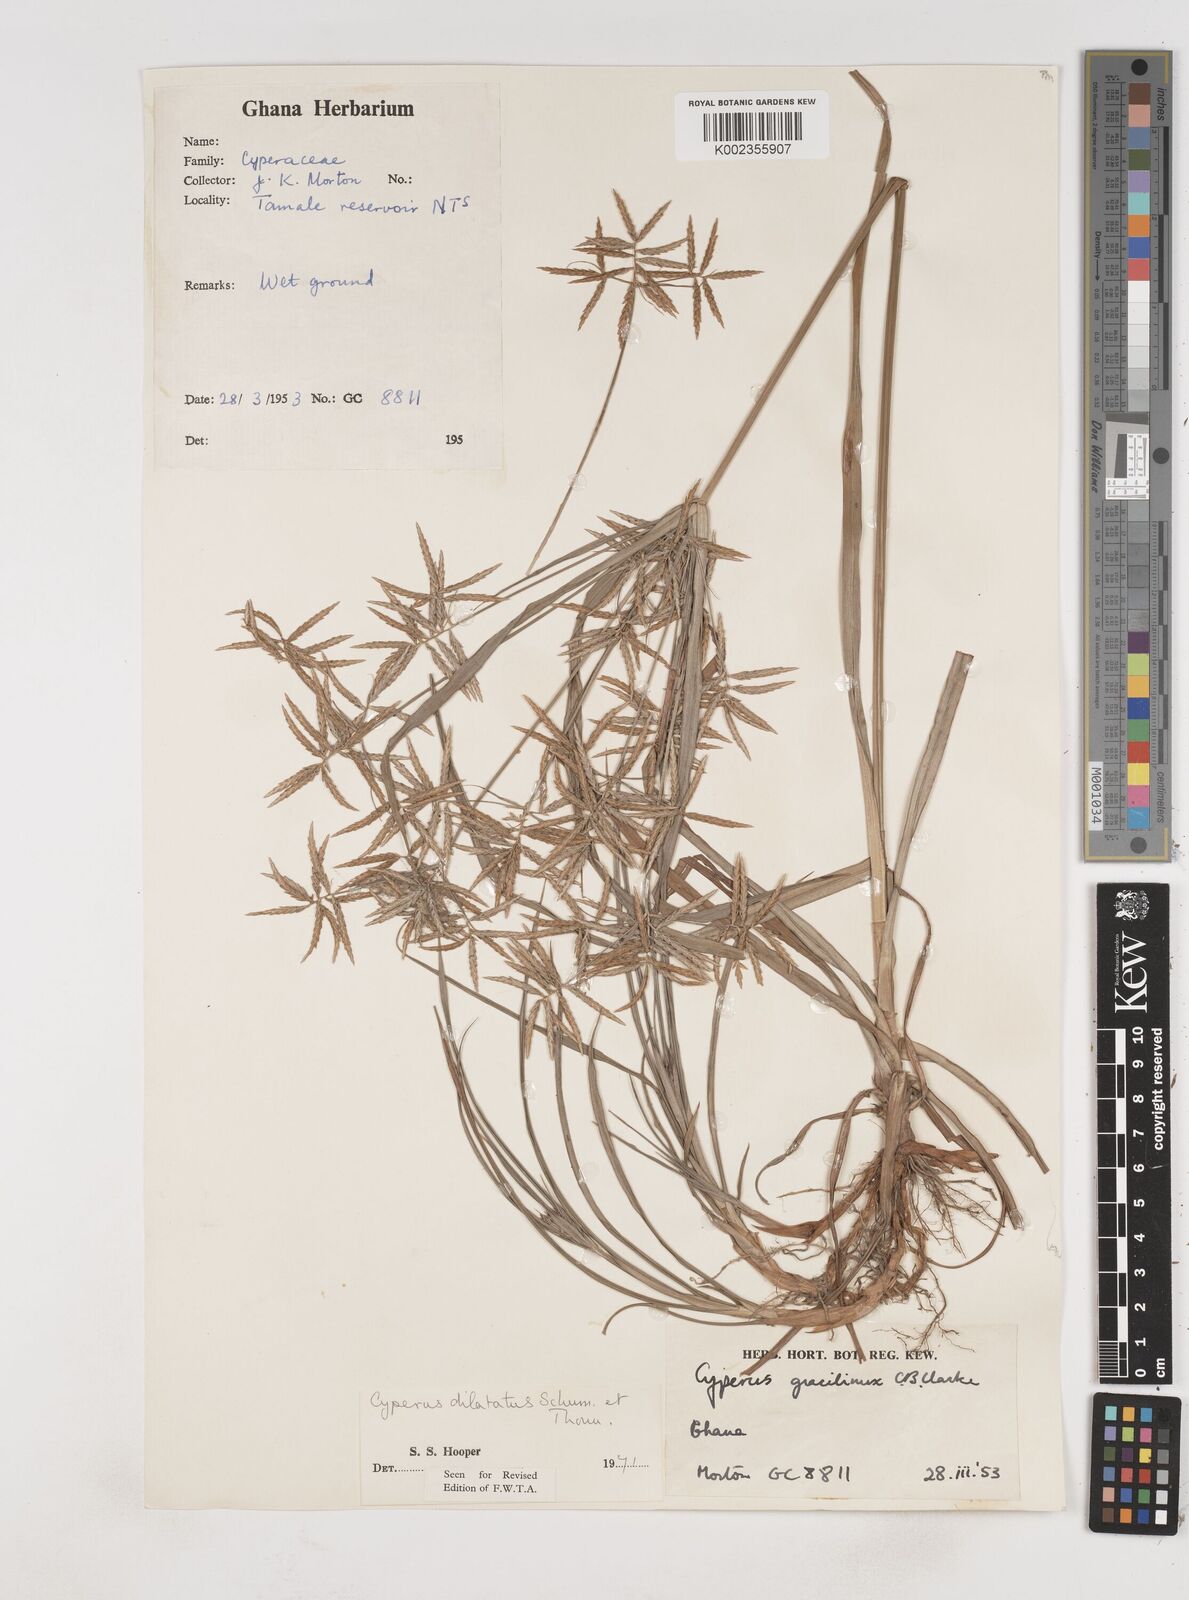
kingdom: Plantae
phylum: Tracheophyta
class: Liliopsida
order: Poales
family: Cyperaceae
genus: Cyperus
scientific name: Cyperus dilatatus
